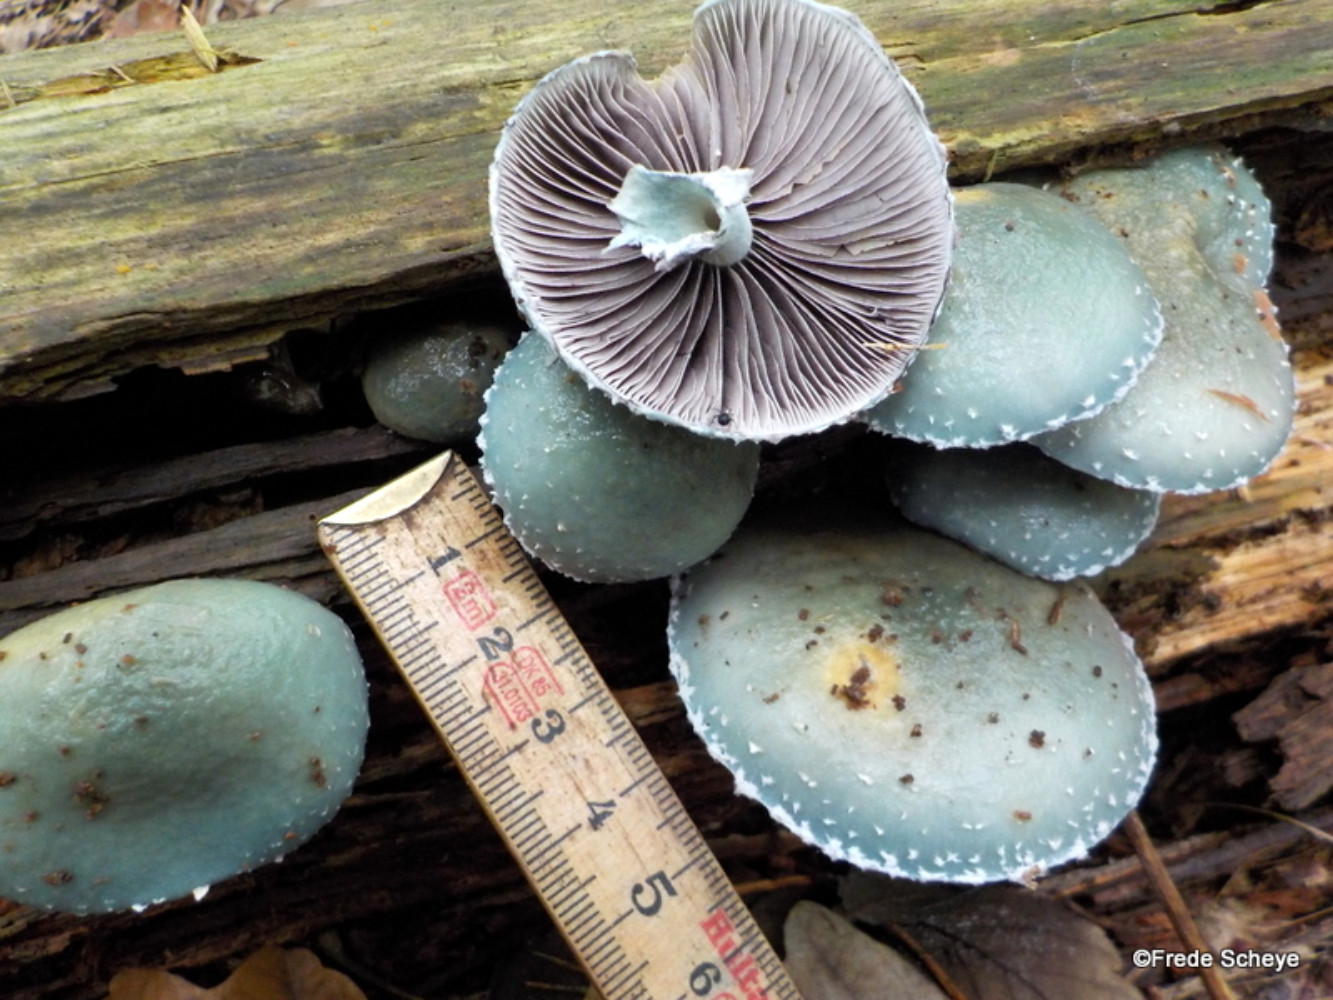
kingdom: Fungi
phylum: Basidiomycota
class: Agaricomycetes
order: Agaricales
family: Strophariaceae
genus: Stropharia
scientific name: Stropharia aeruginosa
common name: spanskgrøn bredblad
